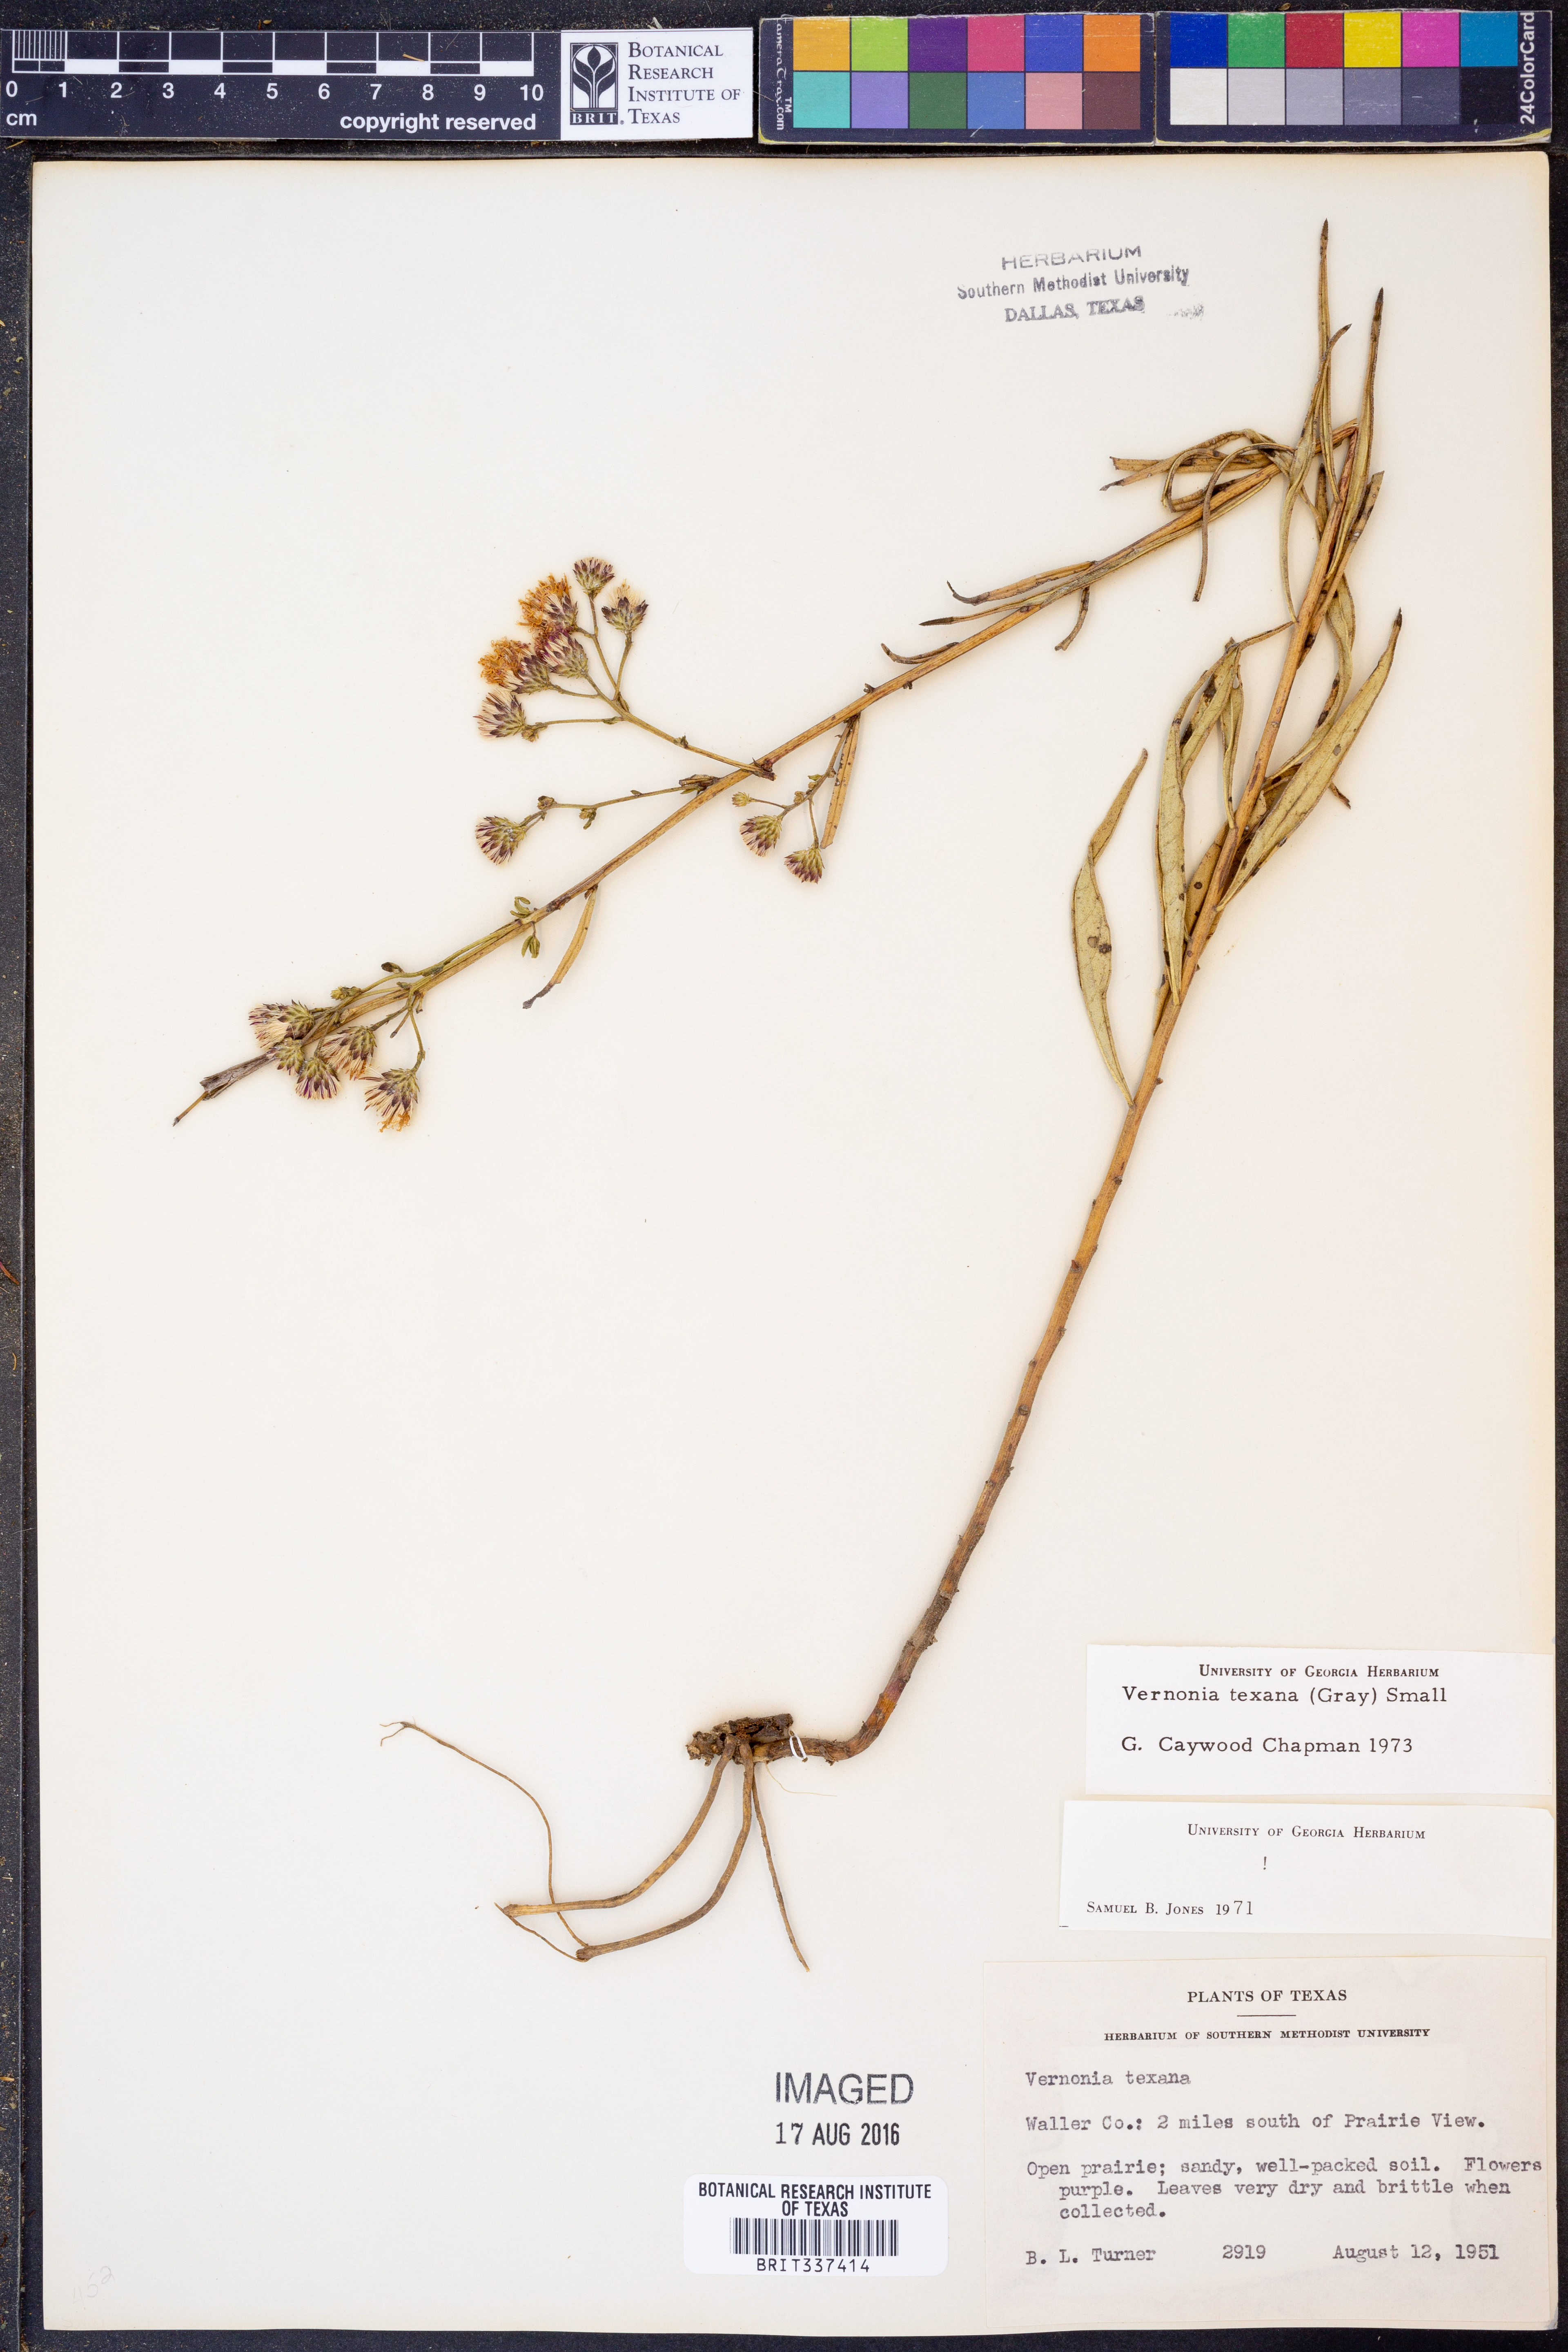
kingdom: Plantae
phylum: Tracheophyta
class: Magnoliopsida
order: Asterales
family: Asteraceae
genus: Vernonia
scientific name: Vernonia texana
